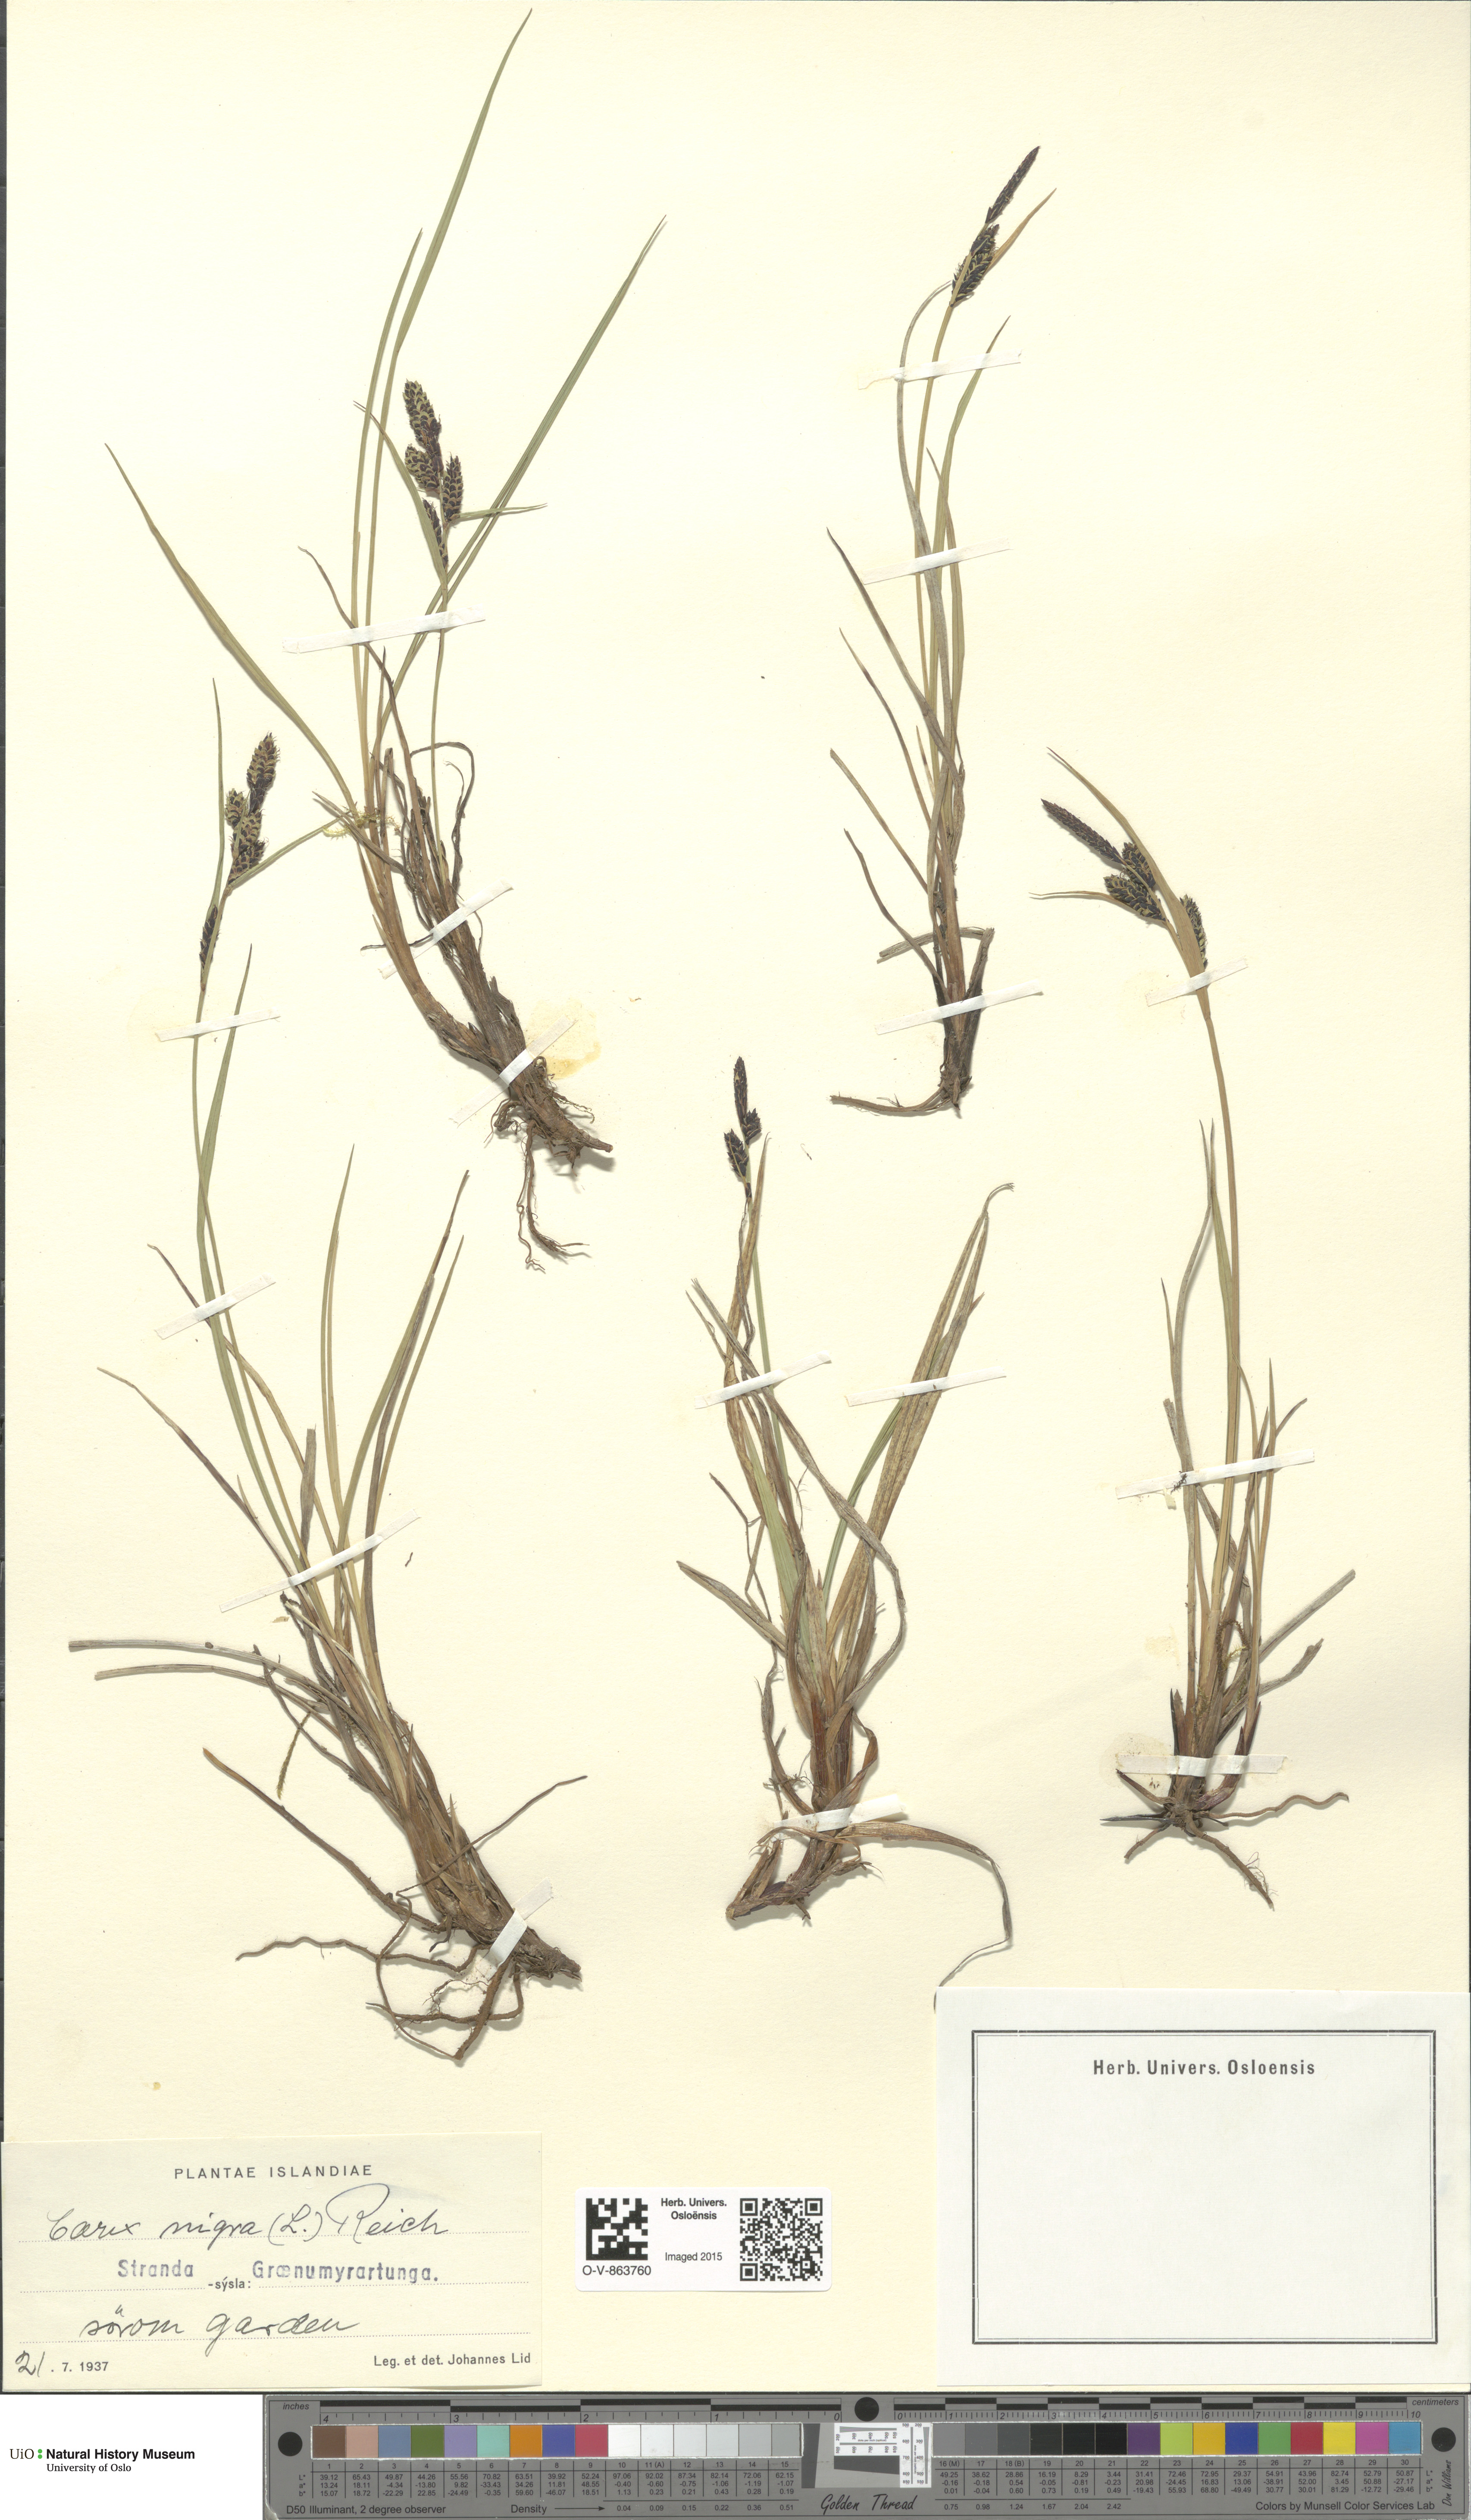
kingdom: Plantae
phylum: Tracheophyta
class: Liliopsida
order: Poales
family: Cyperaceae
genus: Carex
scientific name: Carex nigra
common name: Common sedge
